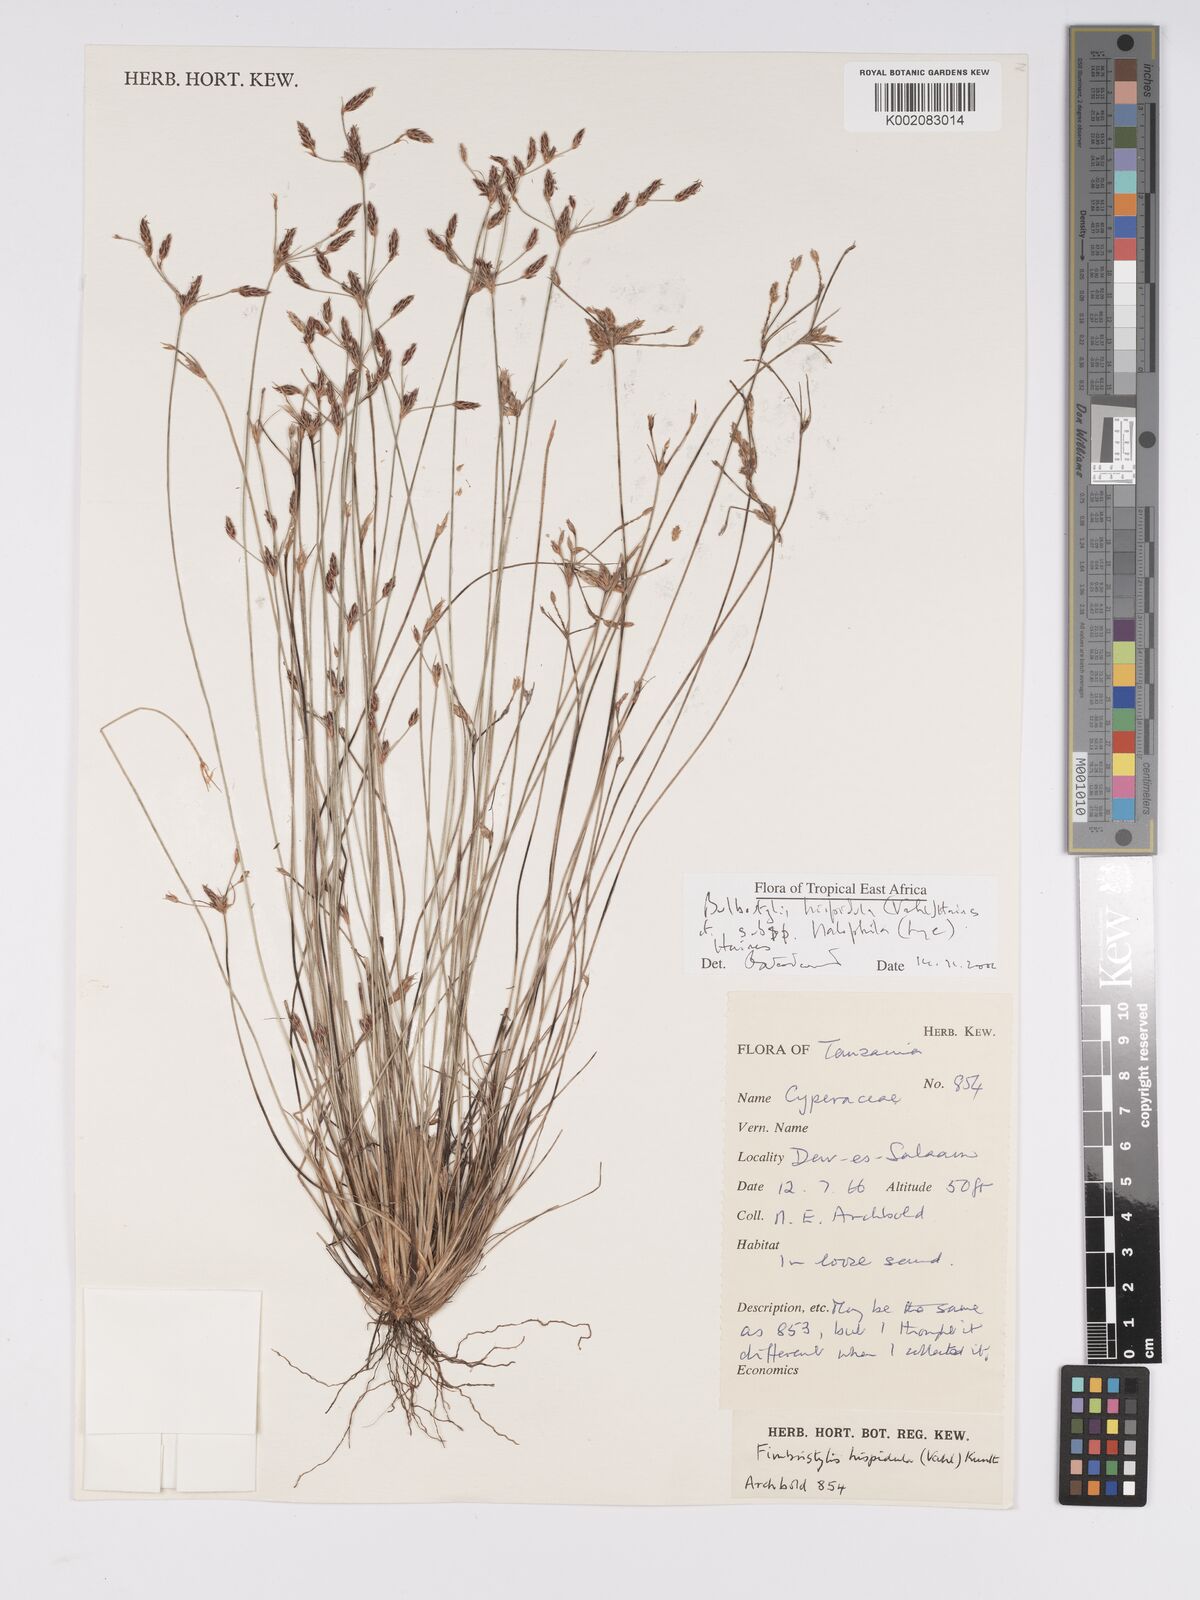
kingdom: Plantae
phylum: Tracheophyta
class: Liliopsida
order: Poales
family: Cyperaceae
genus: Bulbostylis
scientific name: Bulbostylis hispidula
